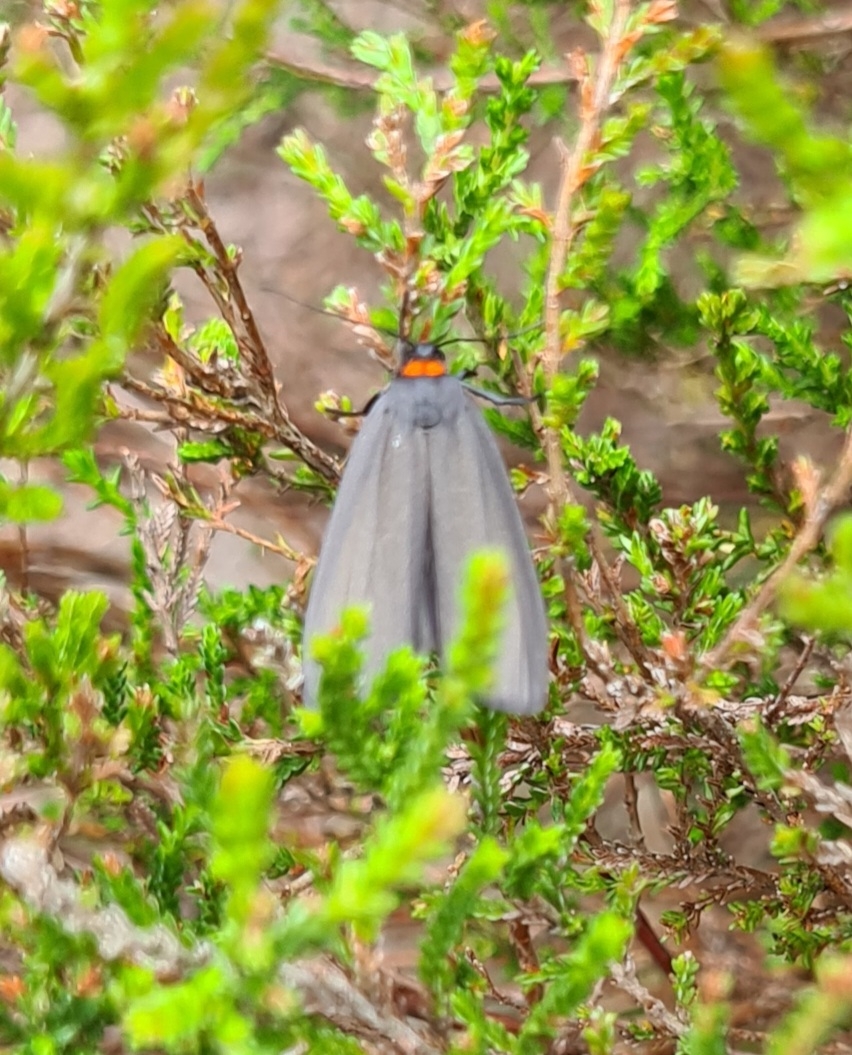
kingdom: Animalia
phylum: Arthropoda
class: Insecta
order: Lepidoptera
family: Erebidae
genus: Atolmis
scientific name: Atolmis rubricollis
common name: Blodnakke
